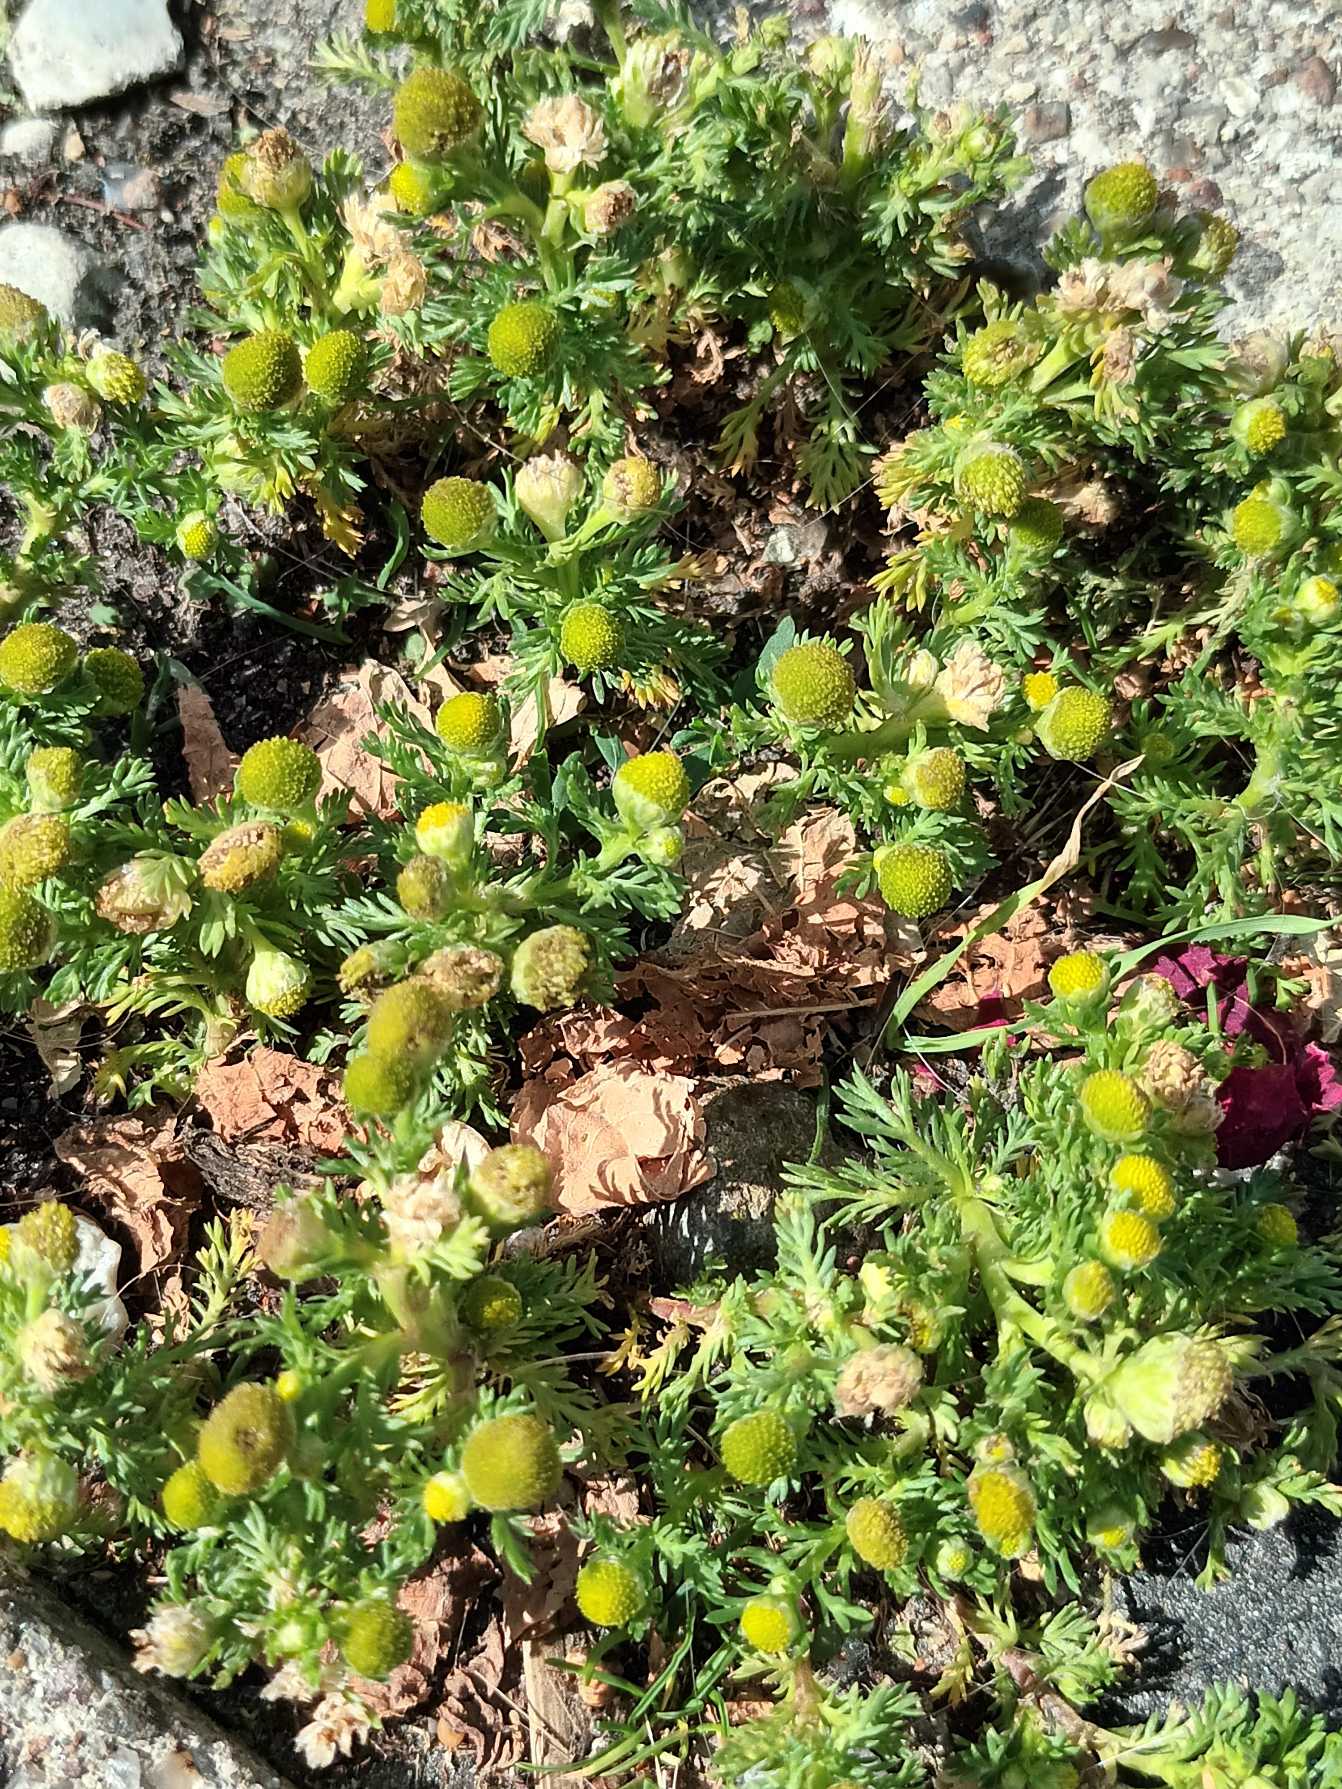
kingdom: Plantae
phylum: Tracheophyta
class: Magnoliopsida
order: Asterales
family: Asteraceae
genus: Matricaria
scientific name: Matricaria discoidea
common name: Skive-kamille
